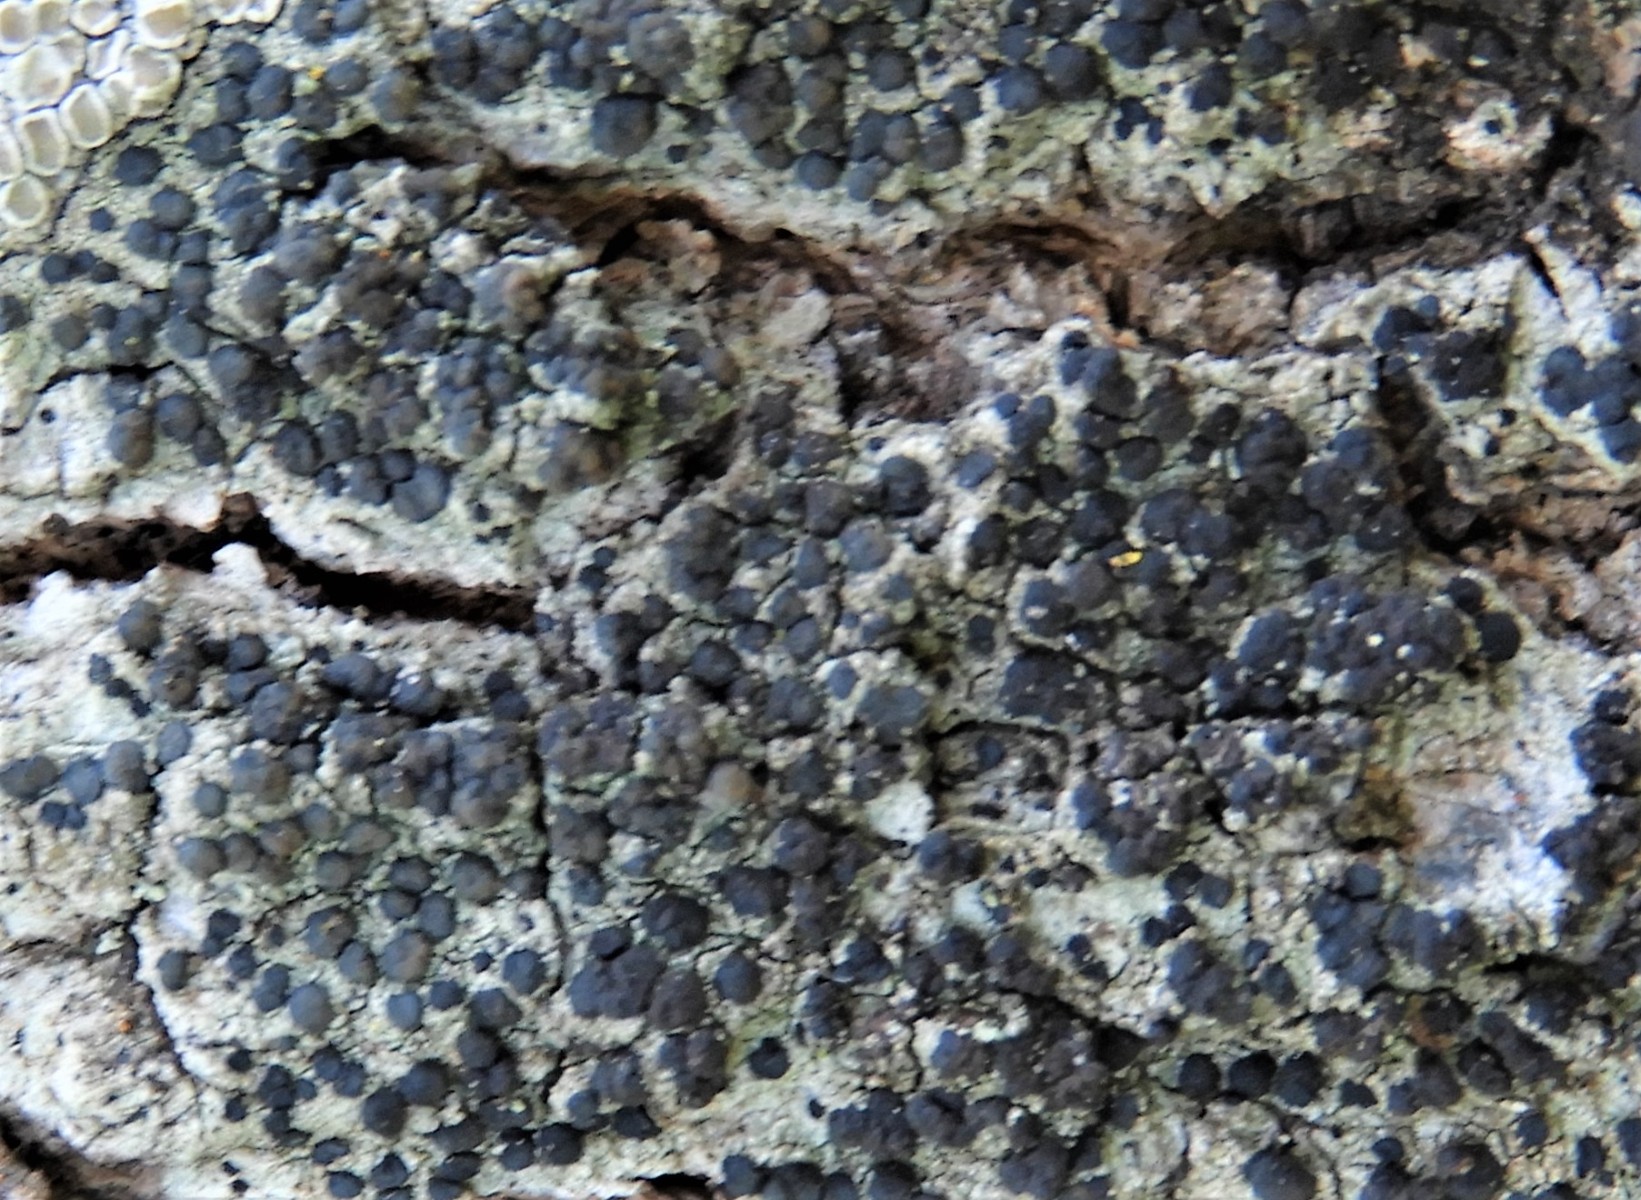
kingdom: Fungi
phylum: Ascomycota
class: Lecanoromycetes
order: Lecanorales
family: Lecanoraceae
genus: Lecidella
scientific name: Lecidella elaeochroma
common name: grågrøn skivelav
